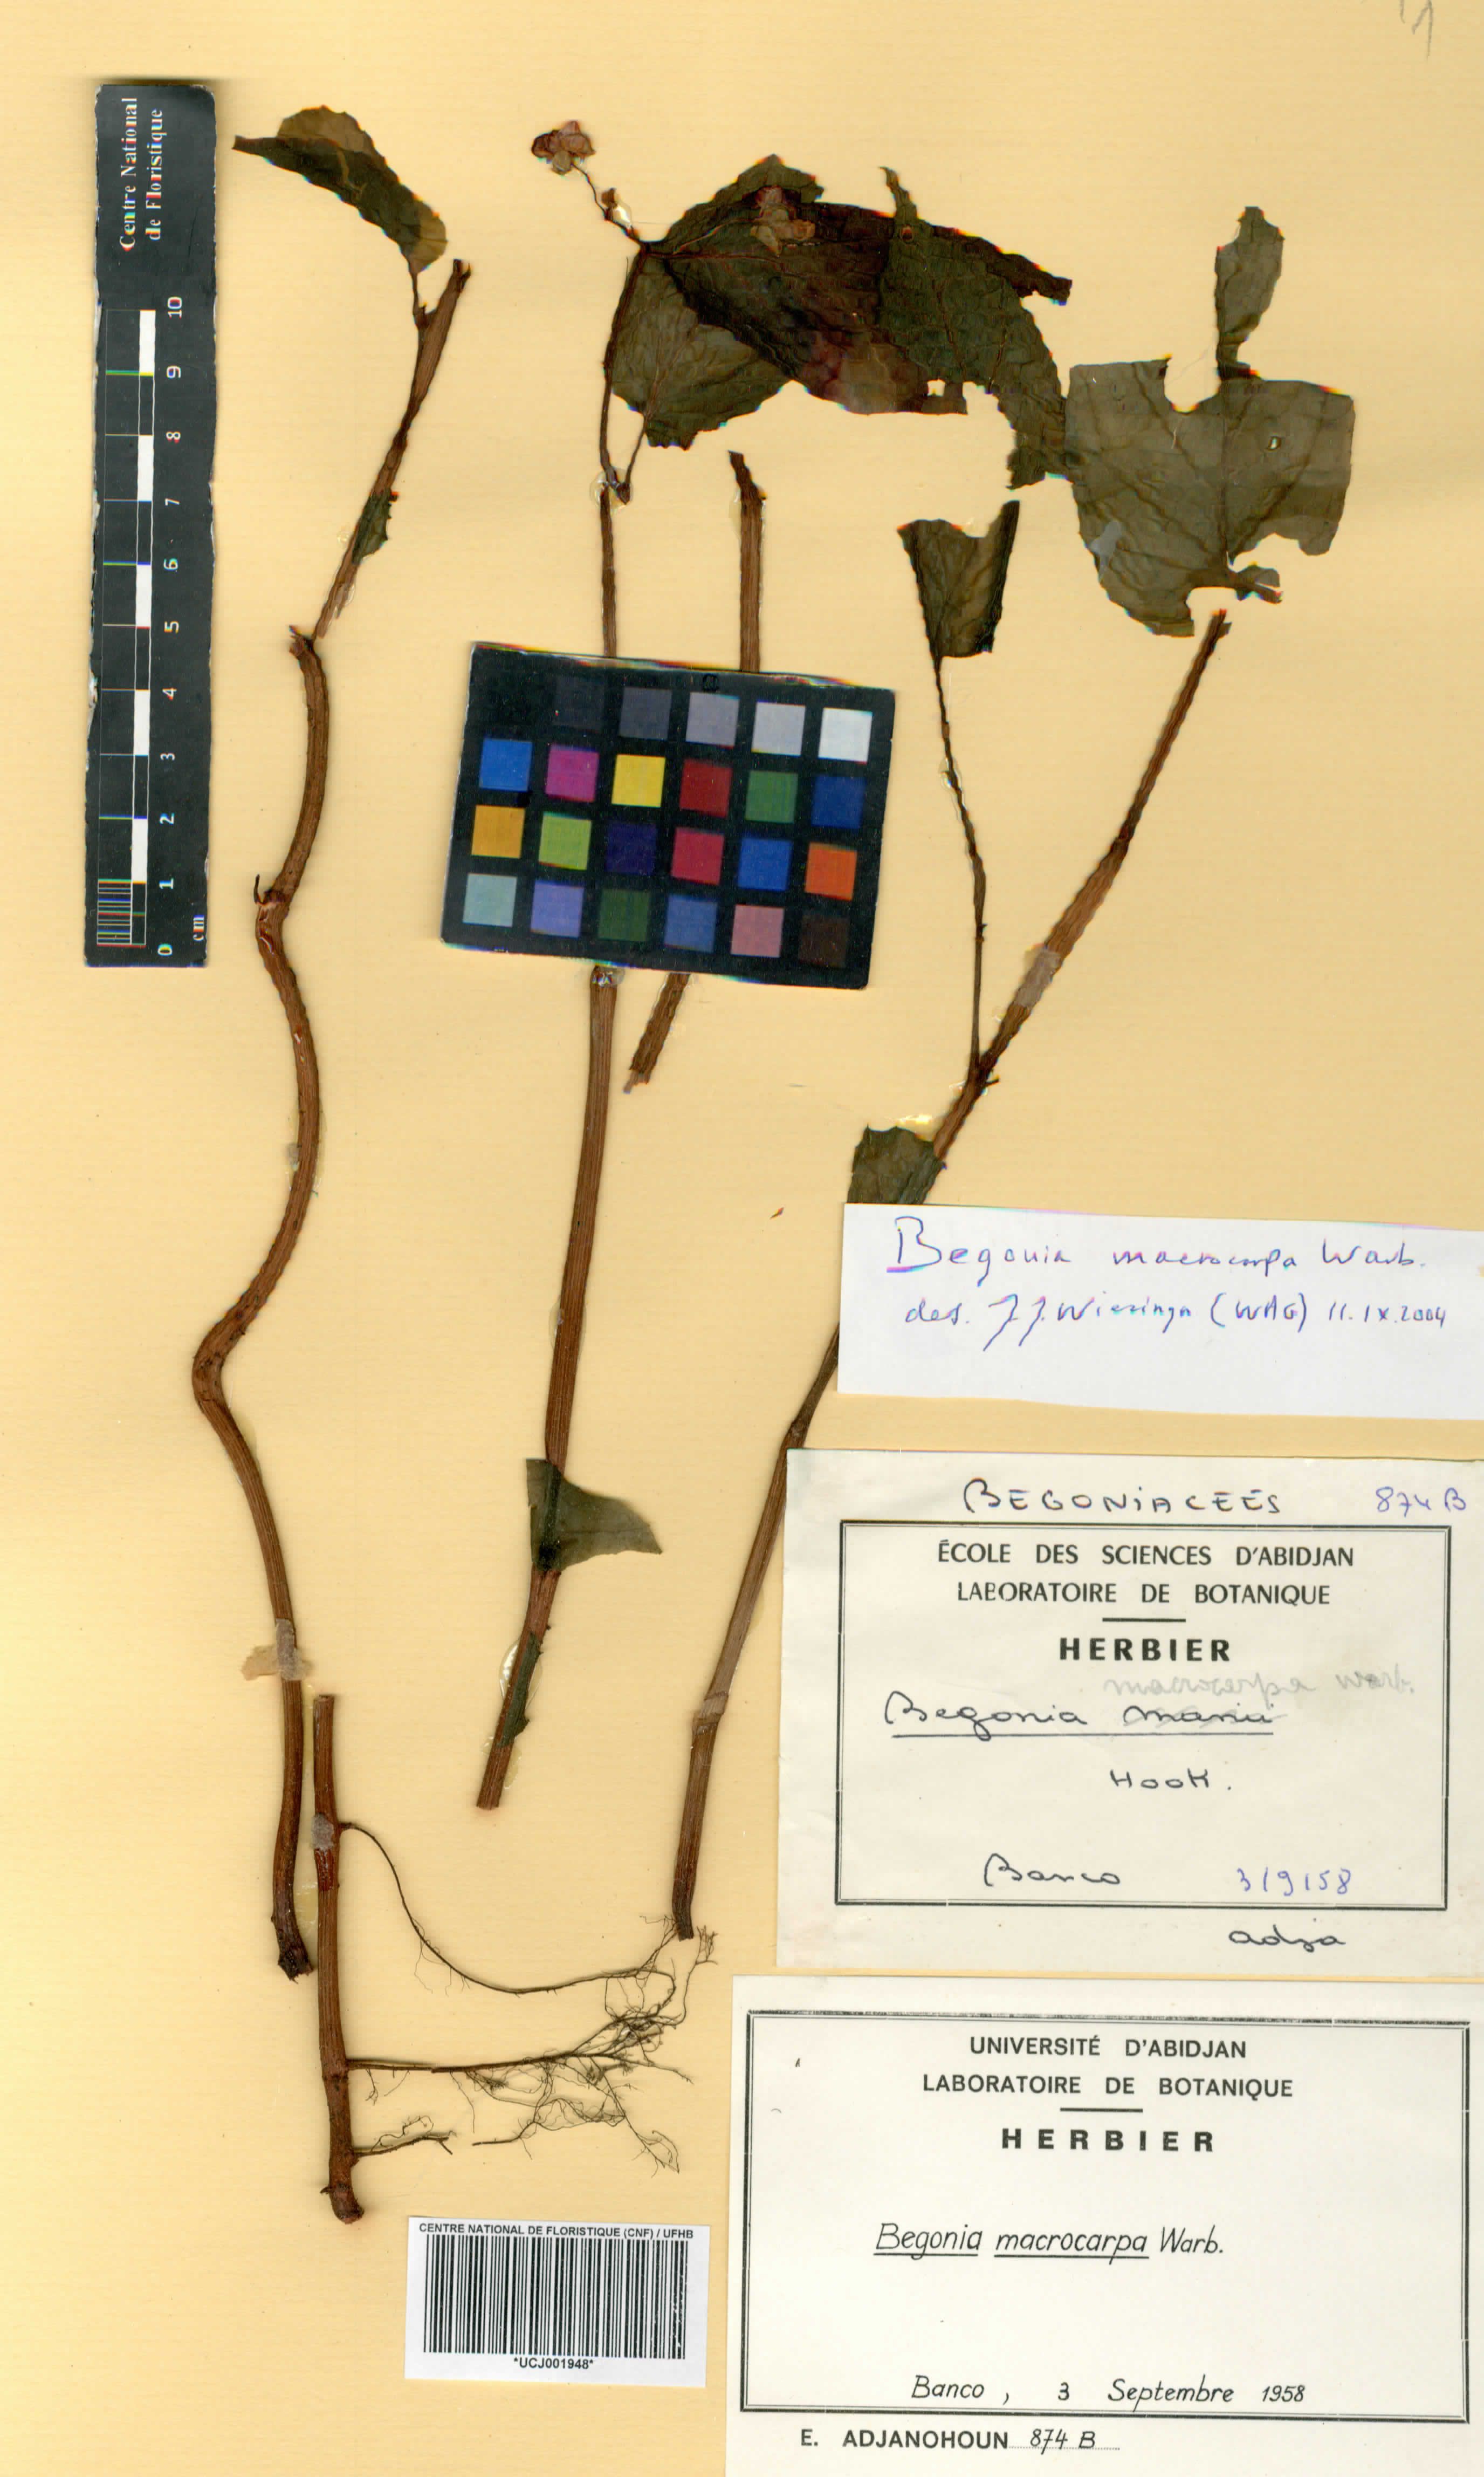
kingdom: Plantae
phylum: Tracheophyta
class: Magnoliopsida
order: Cucurbitales
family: Begoniaceae
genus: Begonia
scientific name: Begonia macrocarpa
